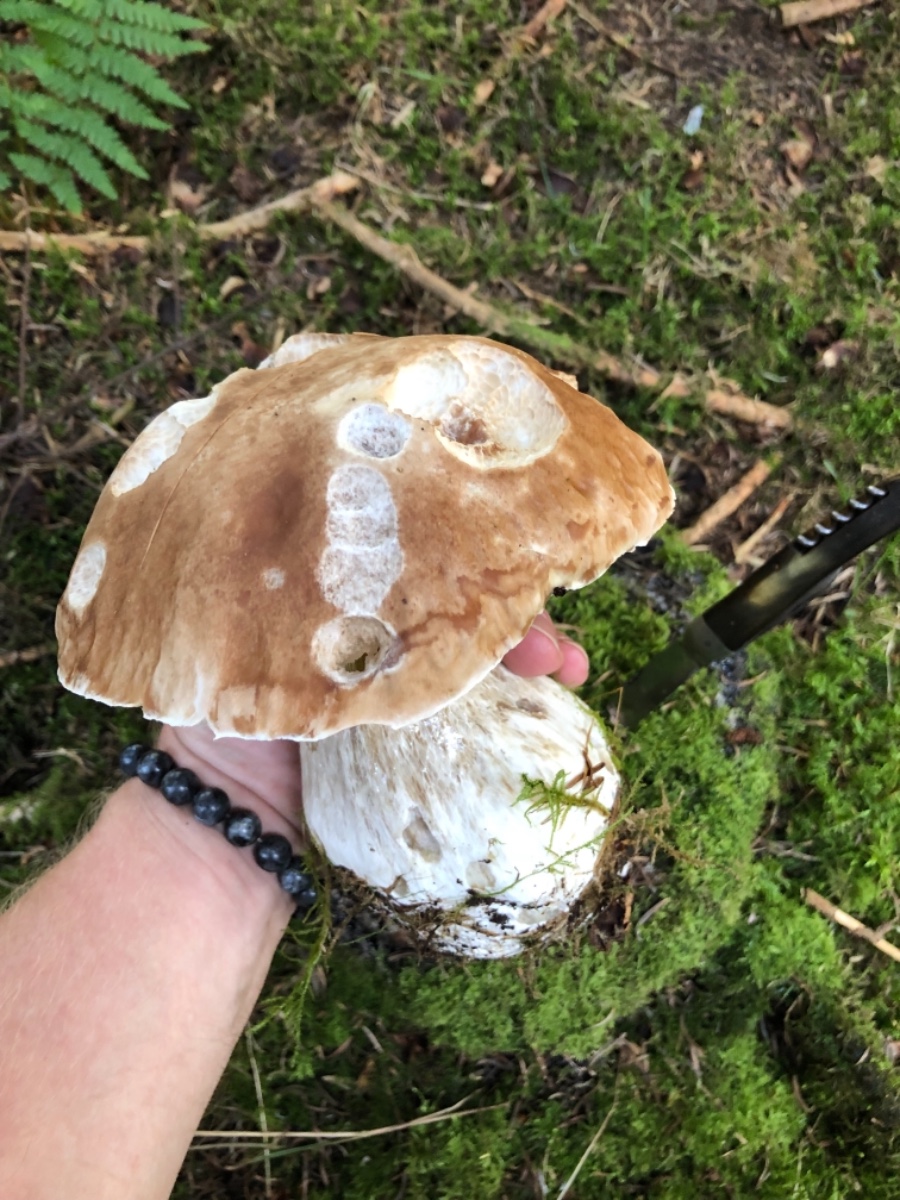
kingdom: Fungi
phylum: Basidiomycota
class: Agaricomycetes
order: Boletales
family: Boletaceae
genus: Boletus
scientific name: Boletus edulis
